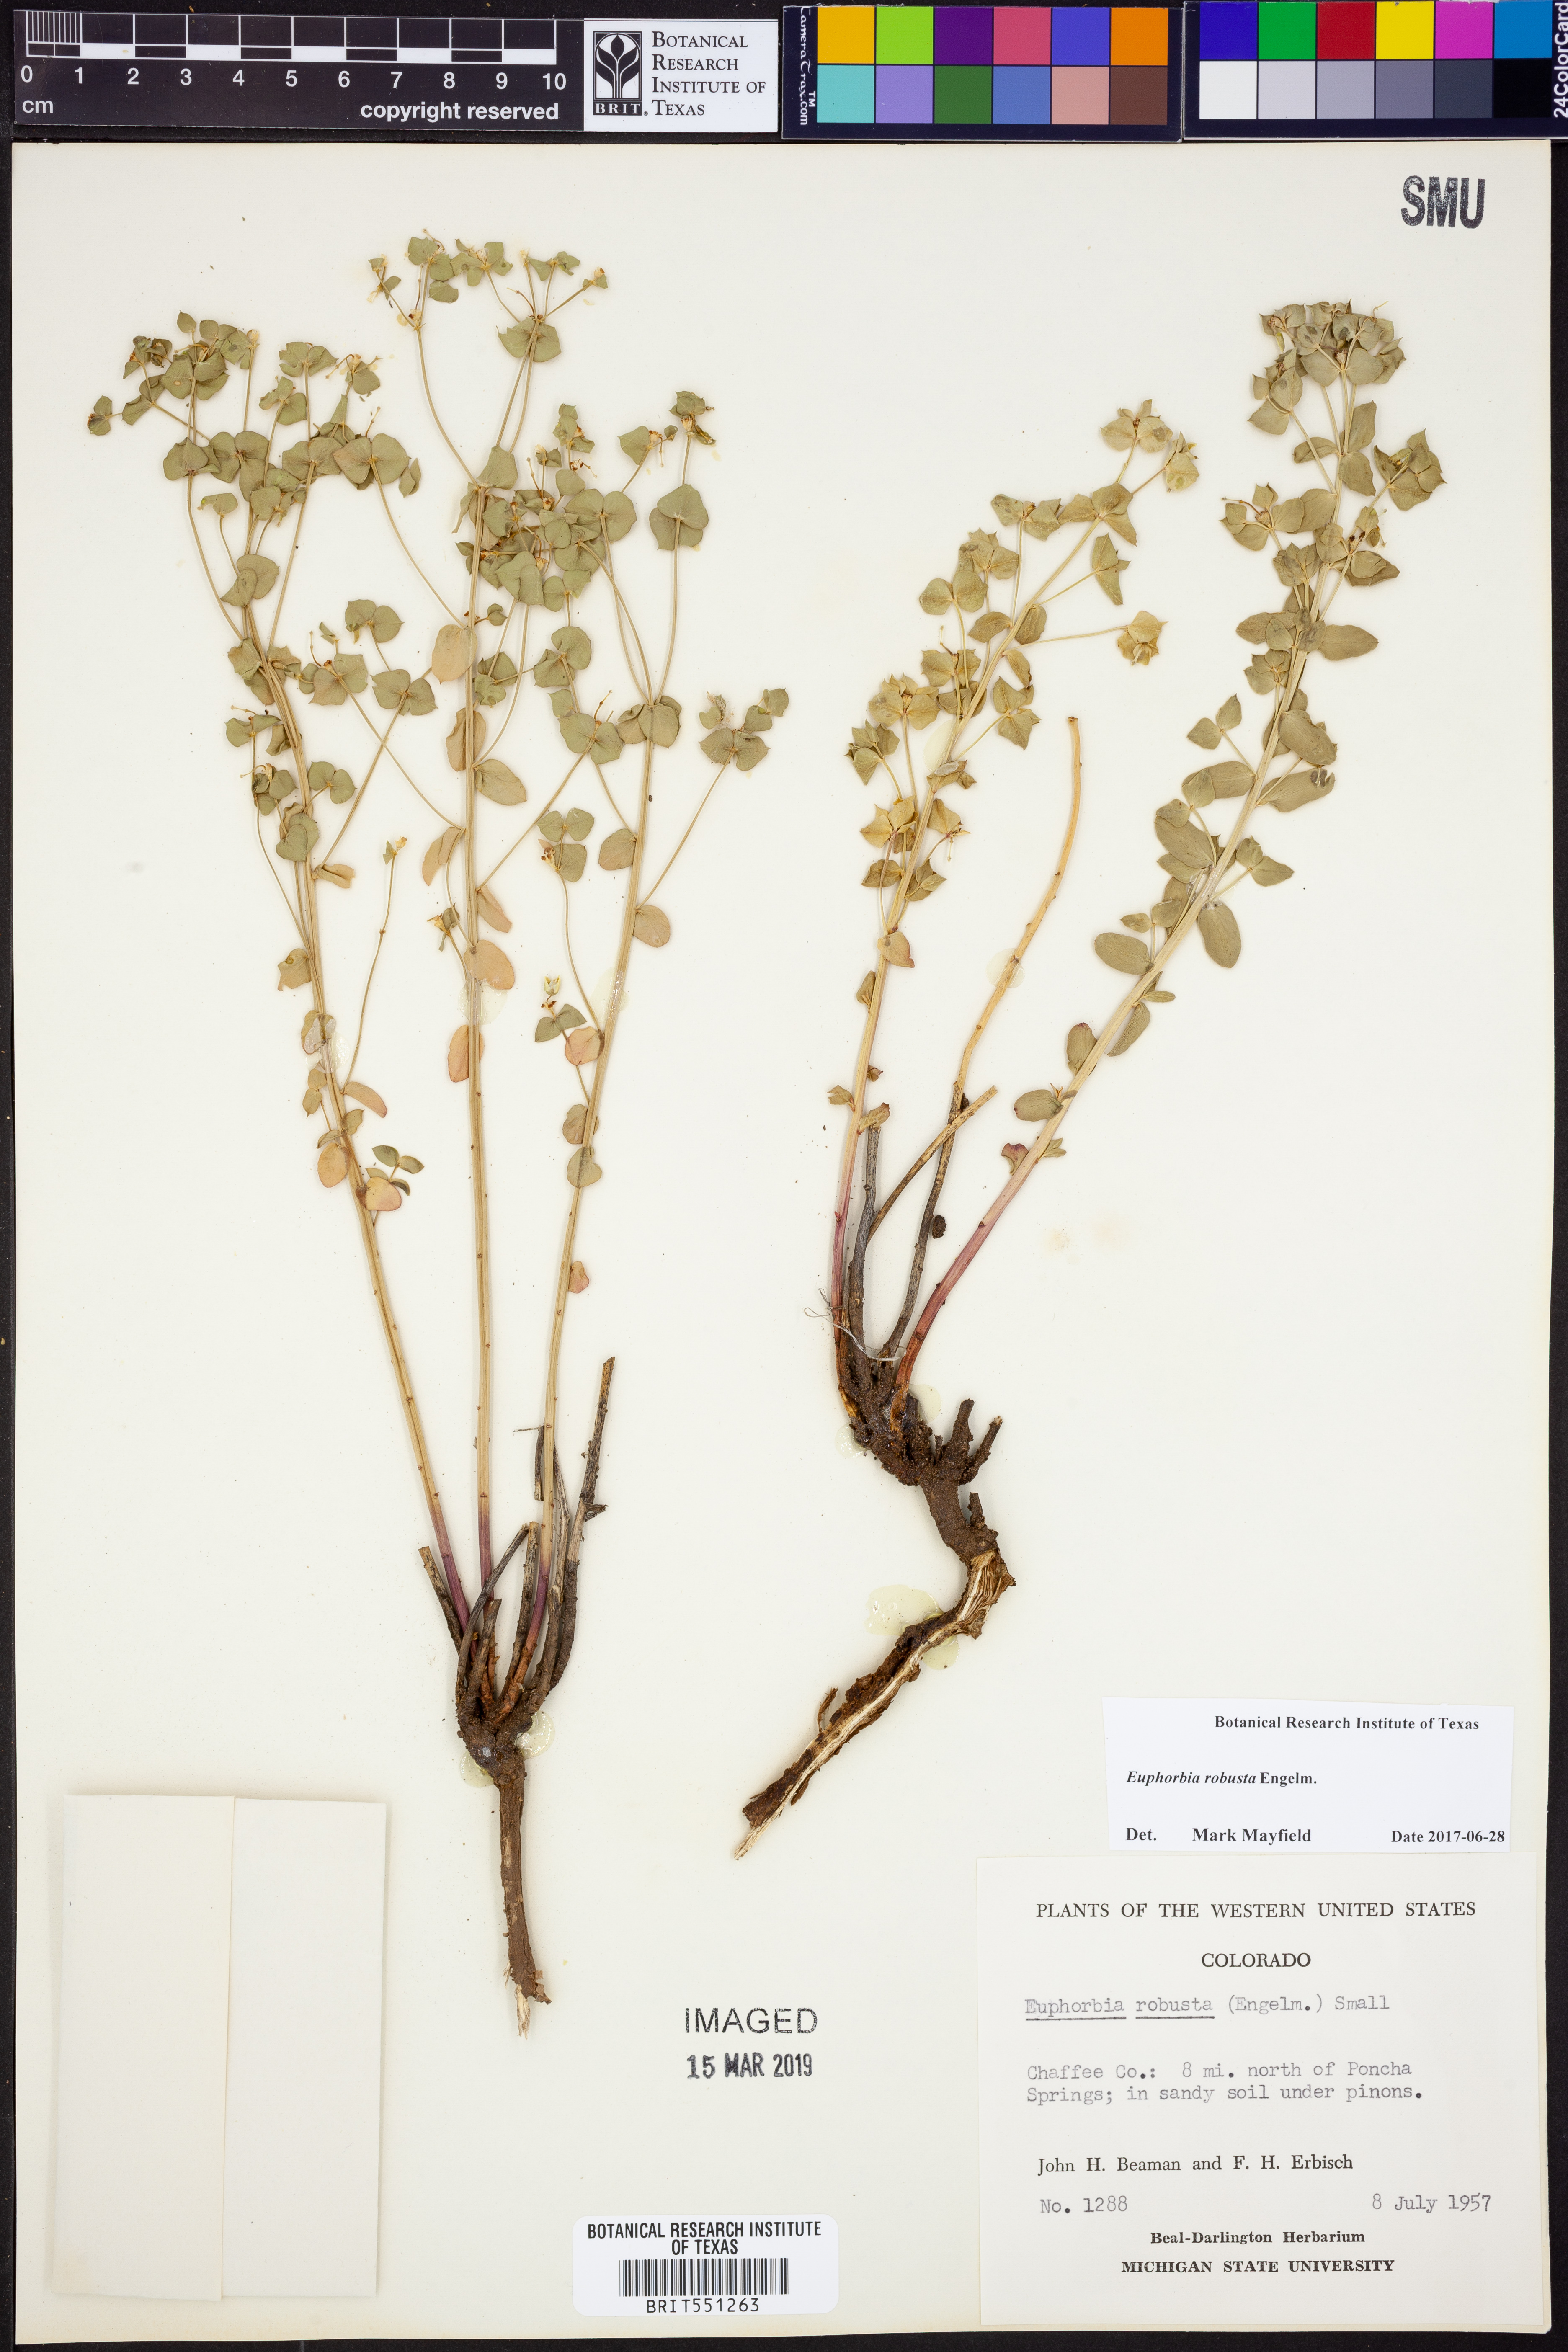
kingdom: Plantae
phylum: Tracheophyta
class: Magnoliopsida
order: Malpighiales
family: Euphorbiaceae
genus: Euphorbia
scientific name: Euphorbia brachycera
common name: Shorthorn spurge
